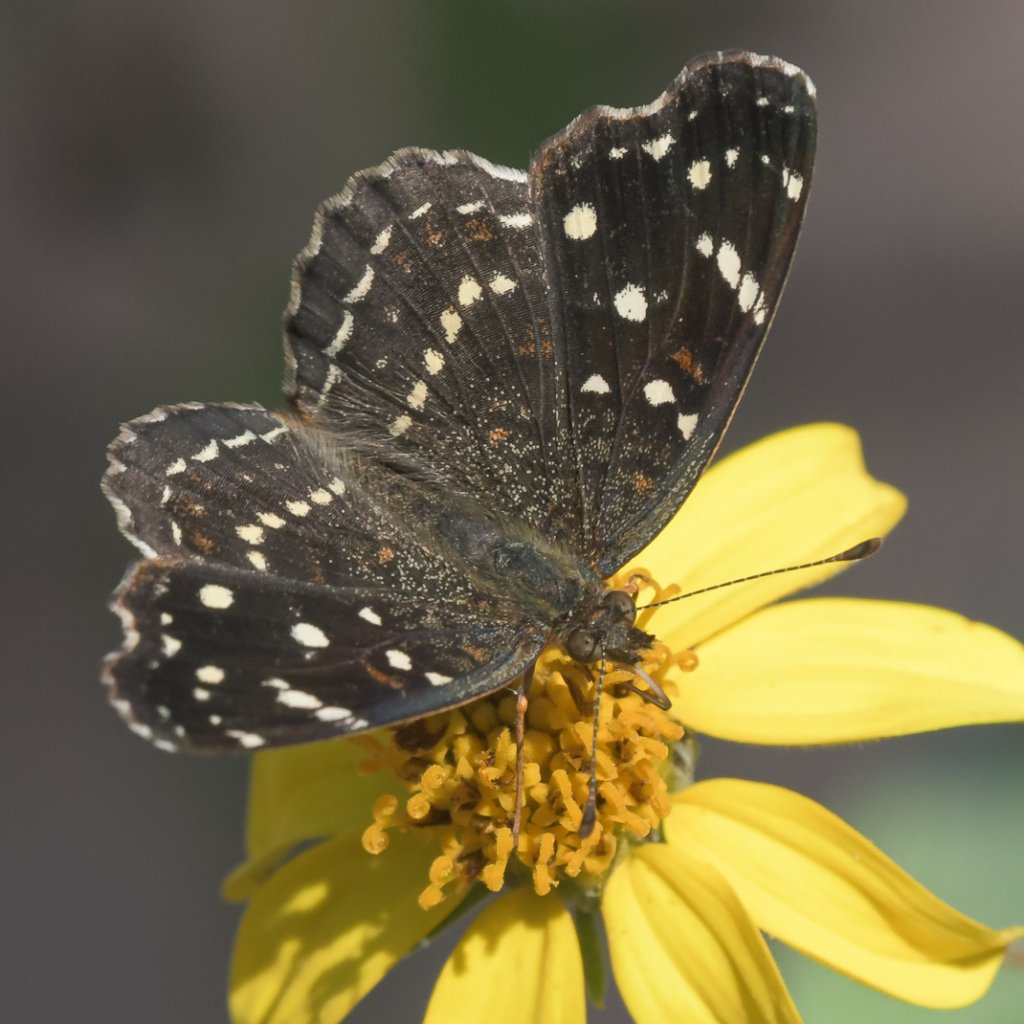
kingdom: Animalia
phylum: Arthropoda
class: Insecta
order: Lepidoptera
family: Nymphalidae
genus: Anthanassa
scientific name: Anthanassa texana
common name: Texan Crescent
